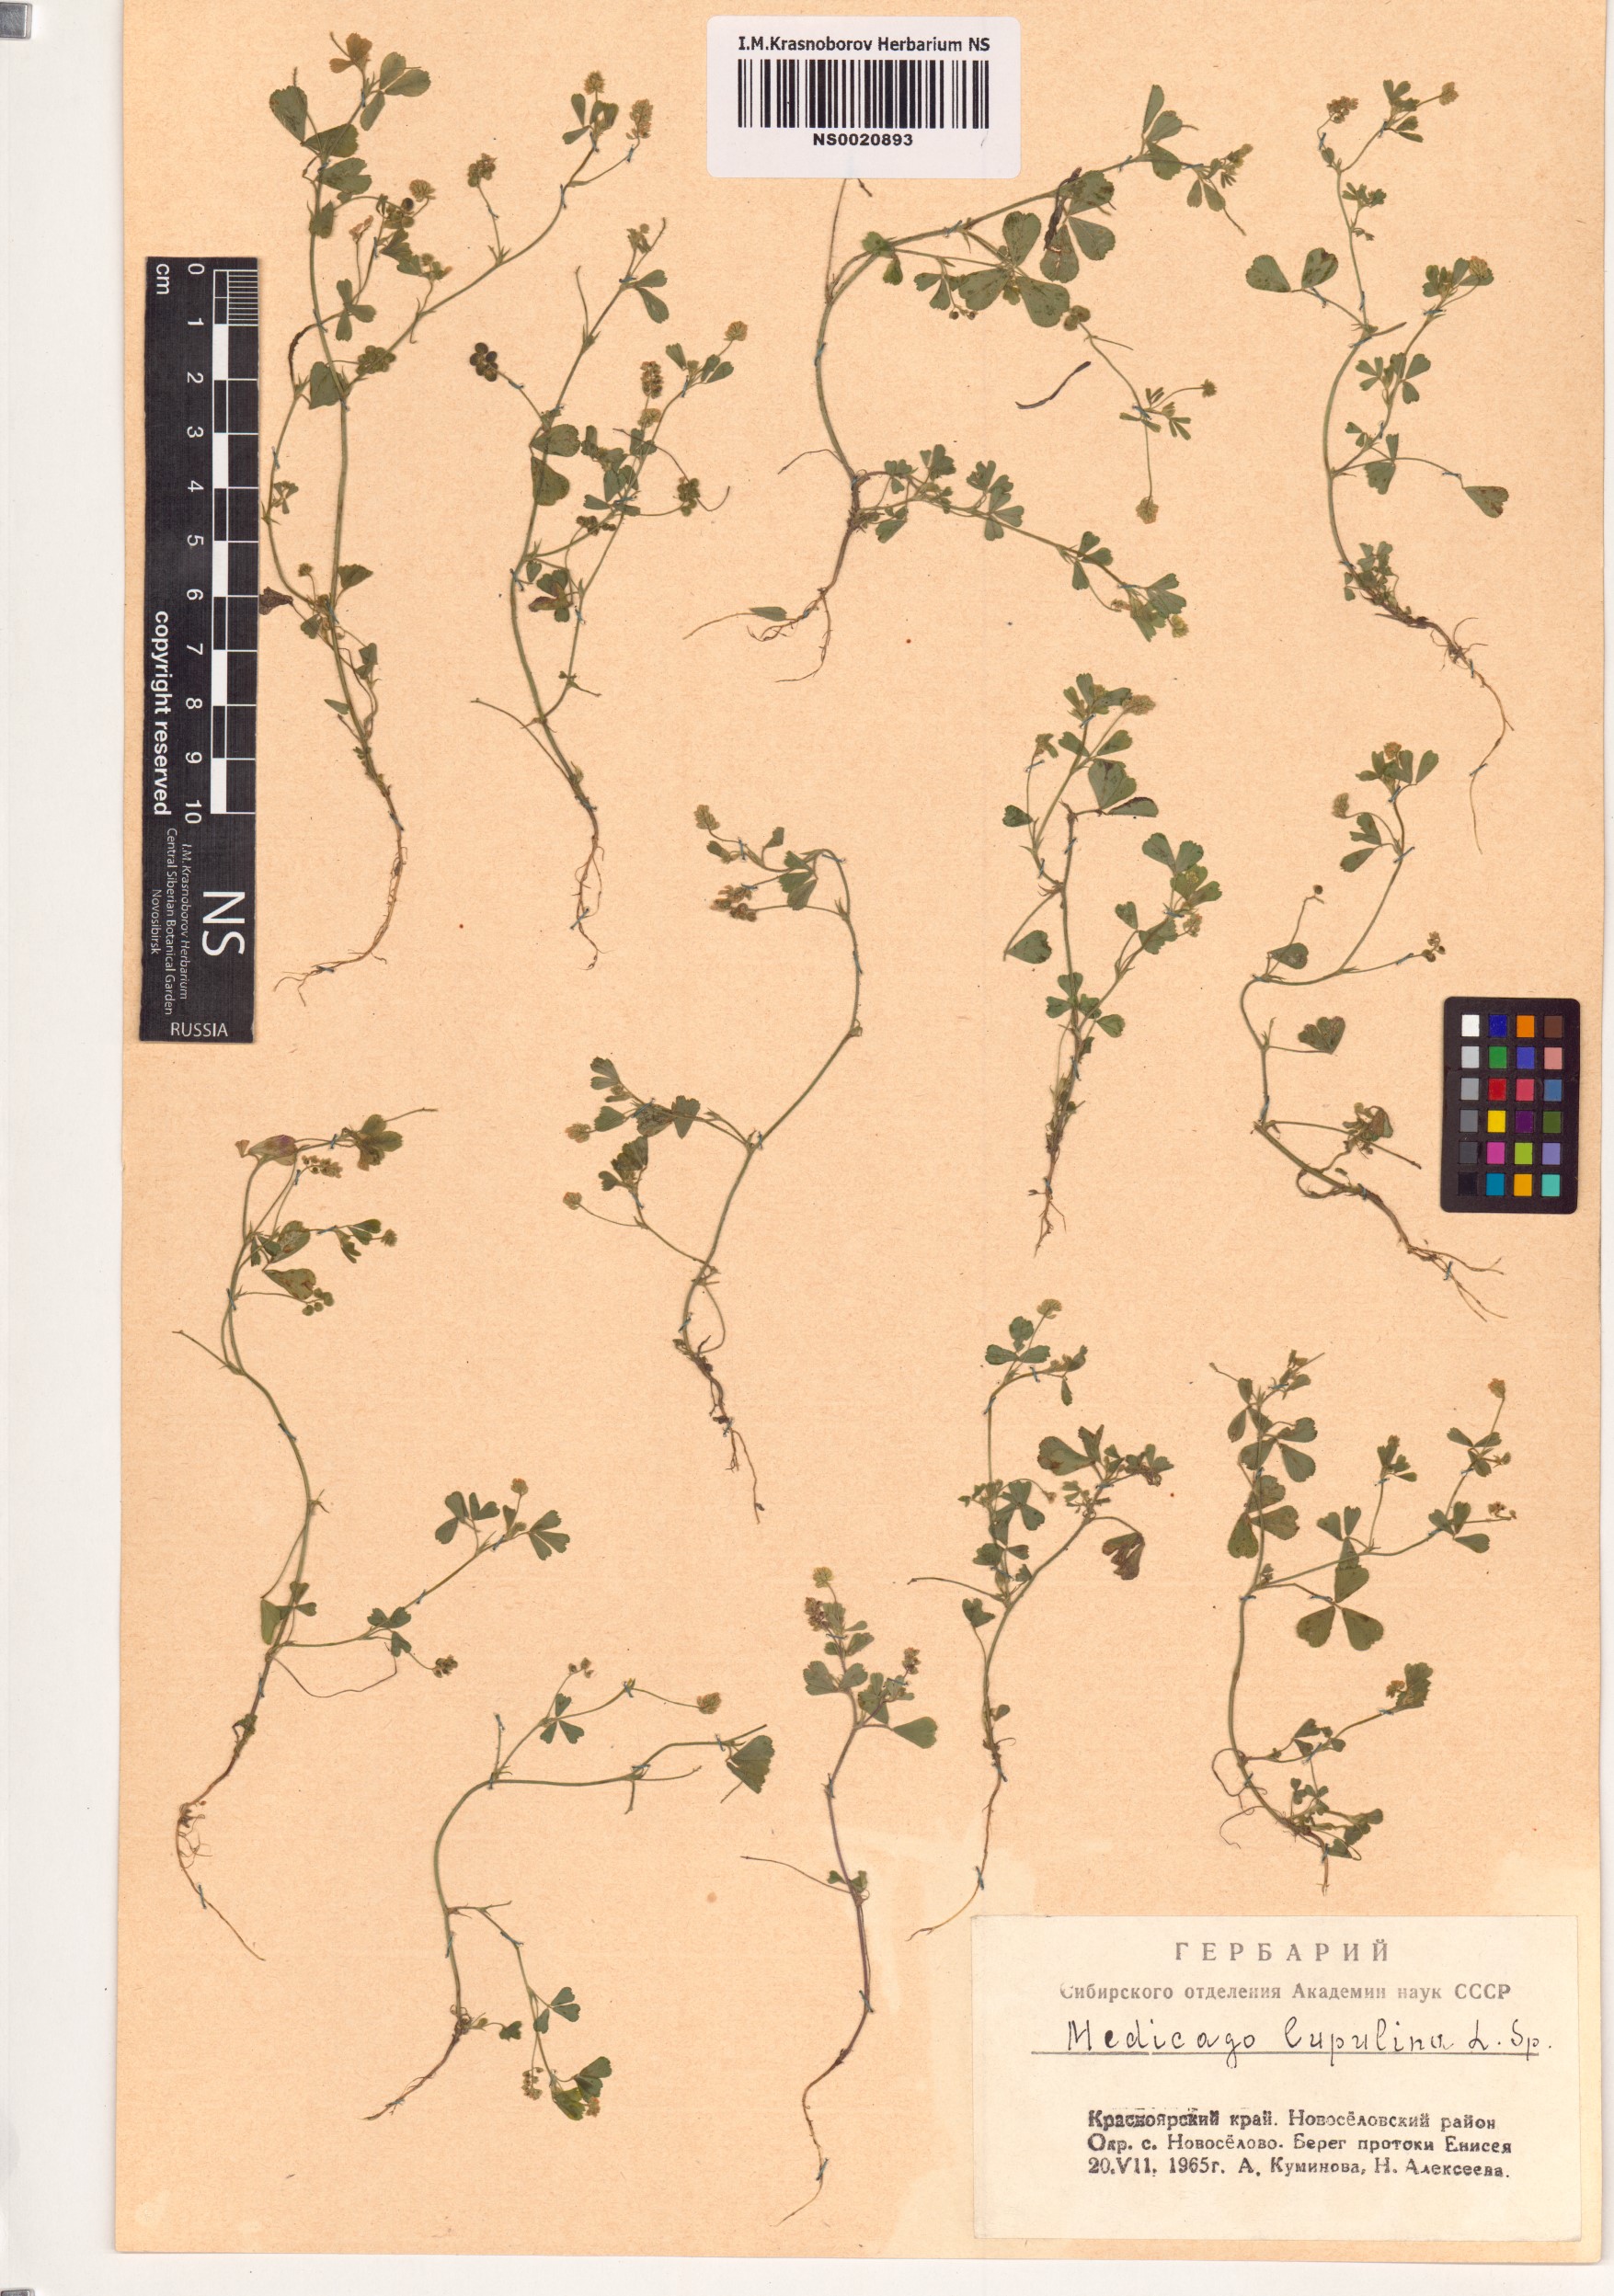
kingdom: Plantae
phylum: Tracheophyta
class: Magnoliopsida
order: Fabales
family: Fabaceae
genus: Medicago
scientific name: Medicago lupulina
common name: Black medick
